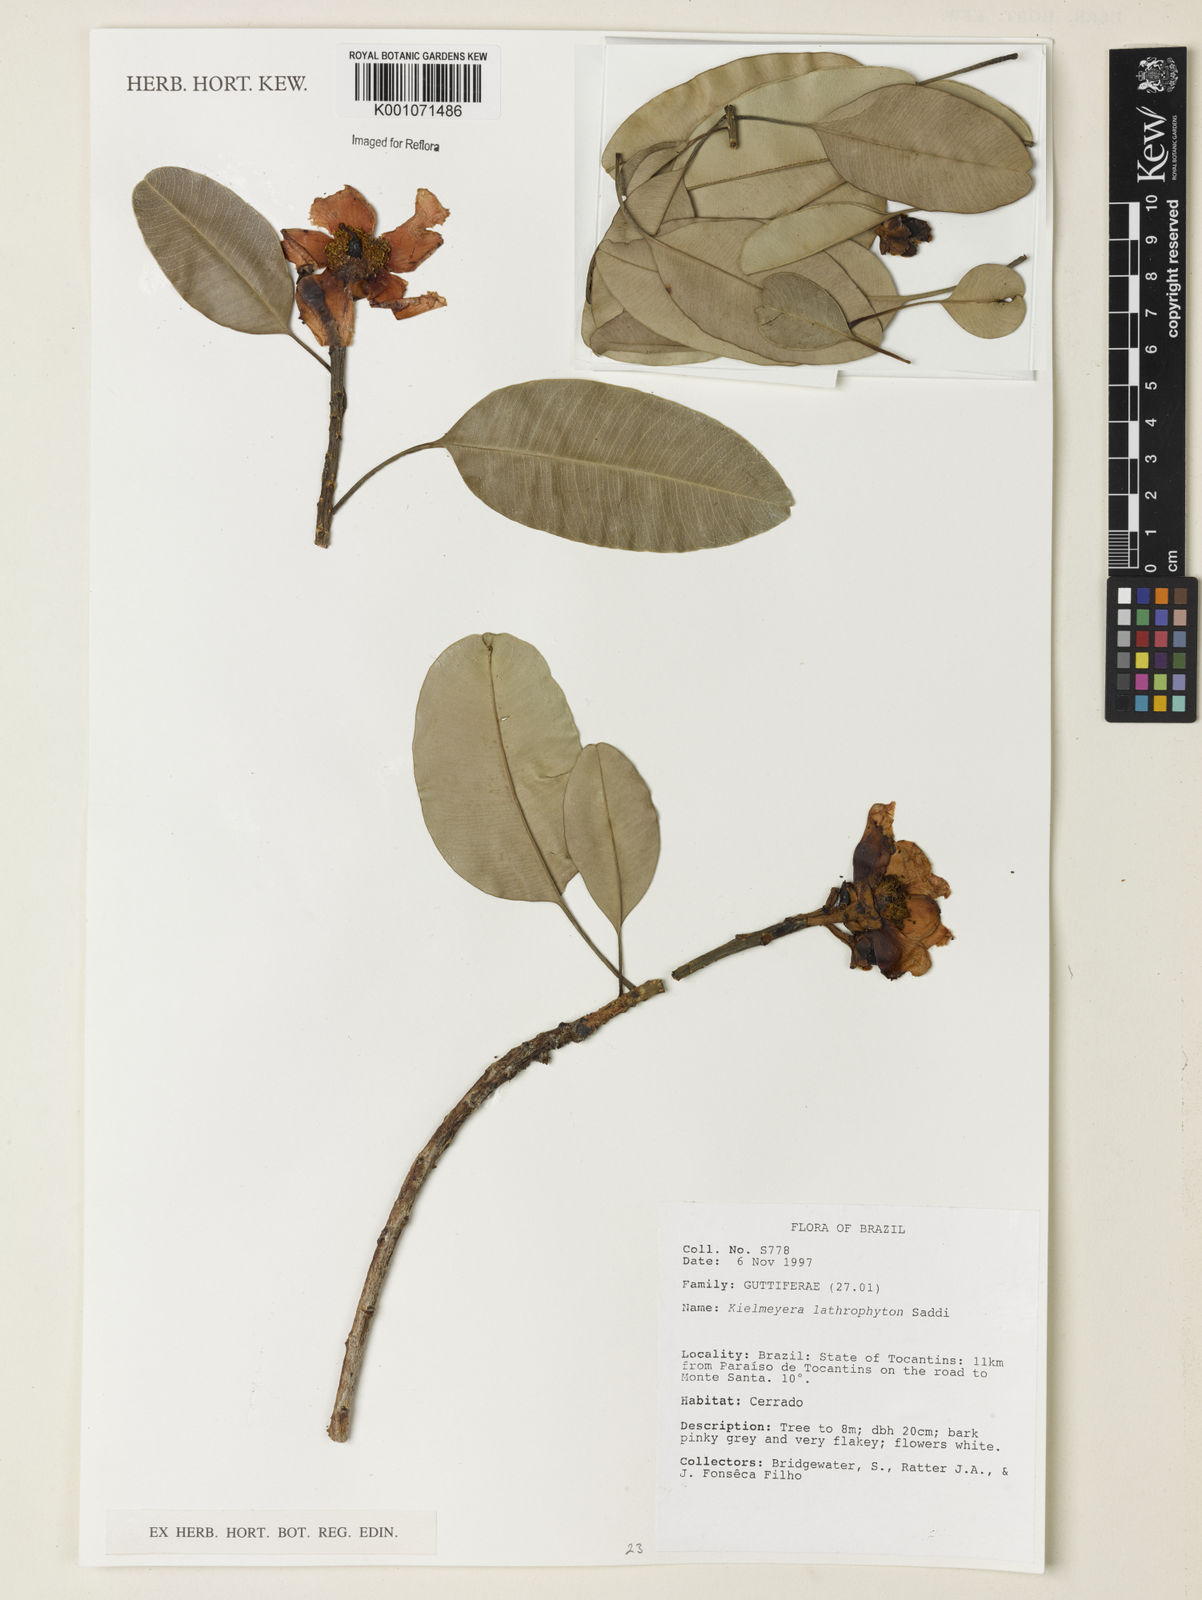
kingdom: Plantae
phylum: Tracheophyta
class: Magnoliopsida
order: Malpighiales
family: Calophyllaceae
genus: Kielmeyera
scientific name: Kielmeyera lathrophyton
